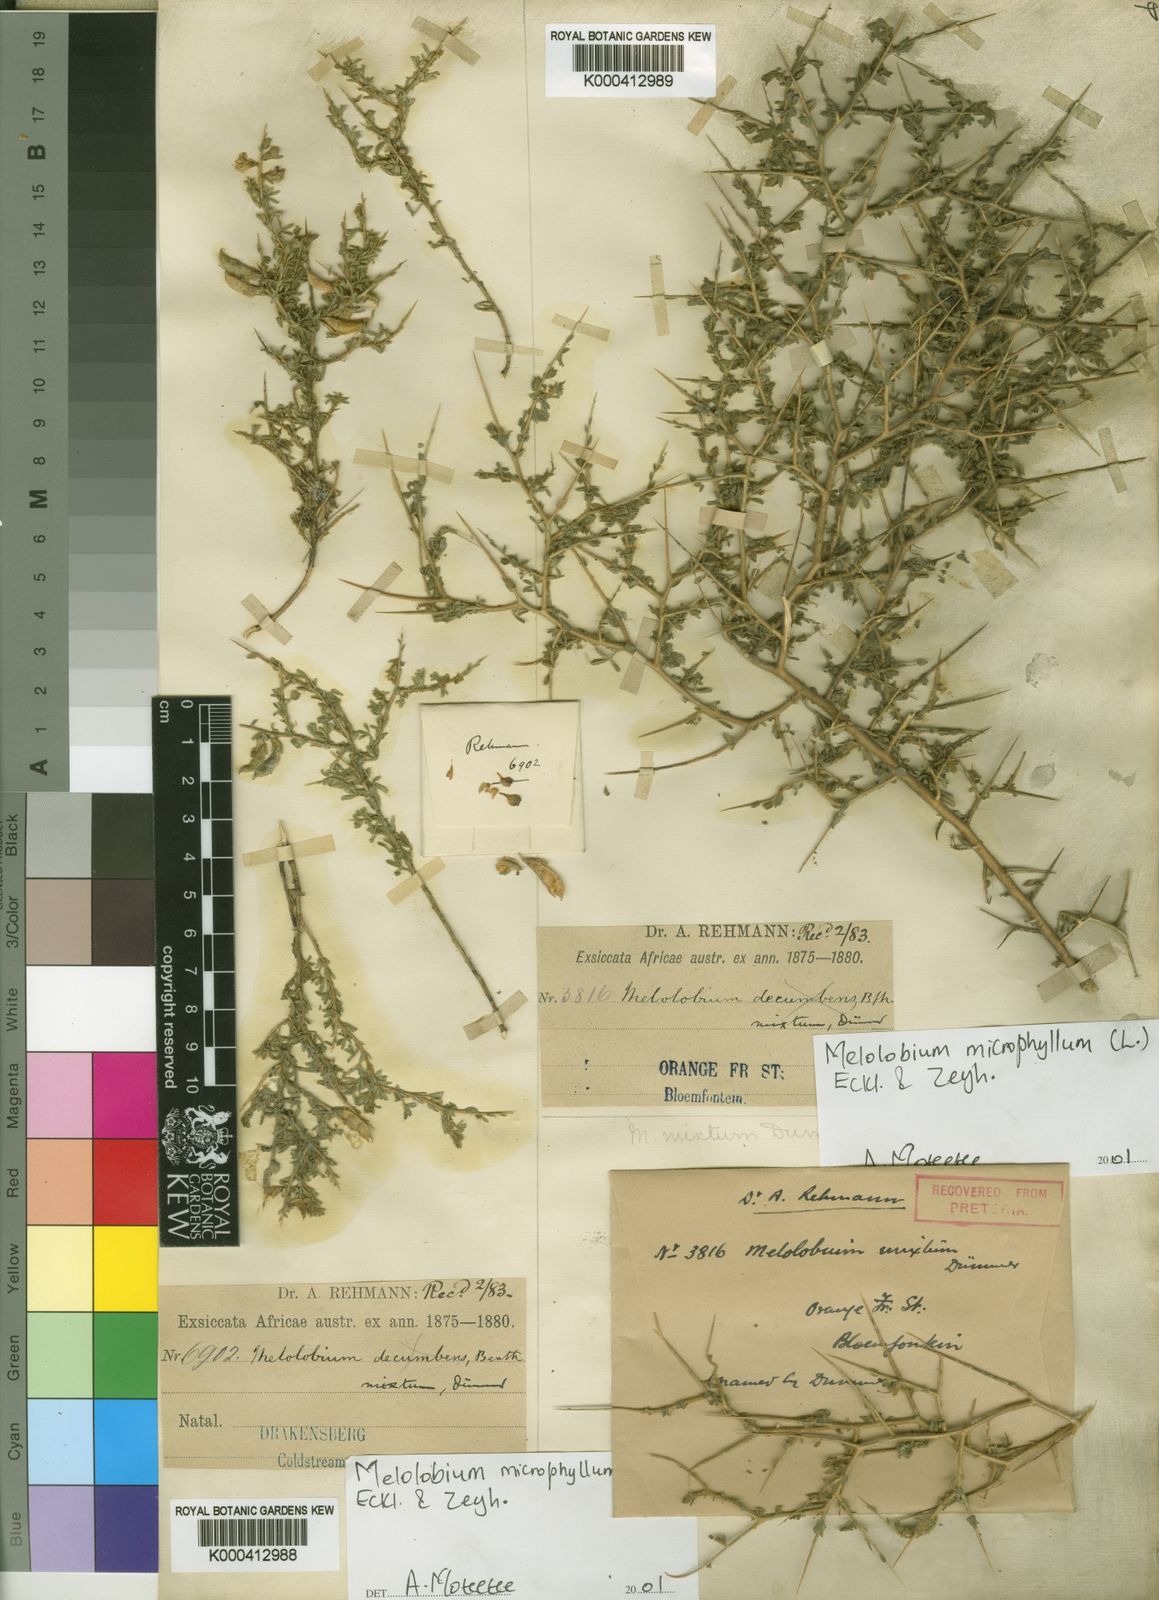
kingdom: Plantae
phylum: Tracheophyta
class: Magnoliopsida
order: Fabales
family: Fabaceae
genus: Melolobium
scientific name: Melolobium microphyllum
